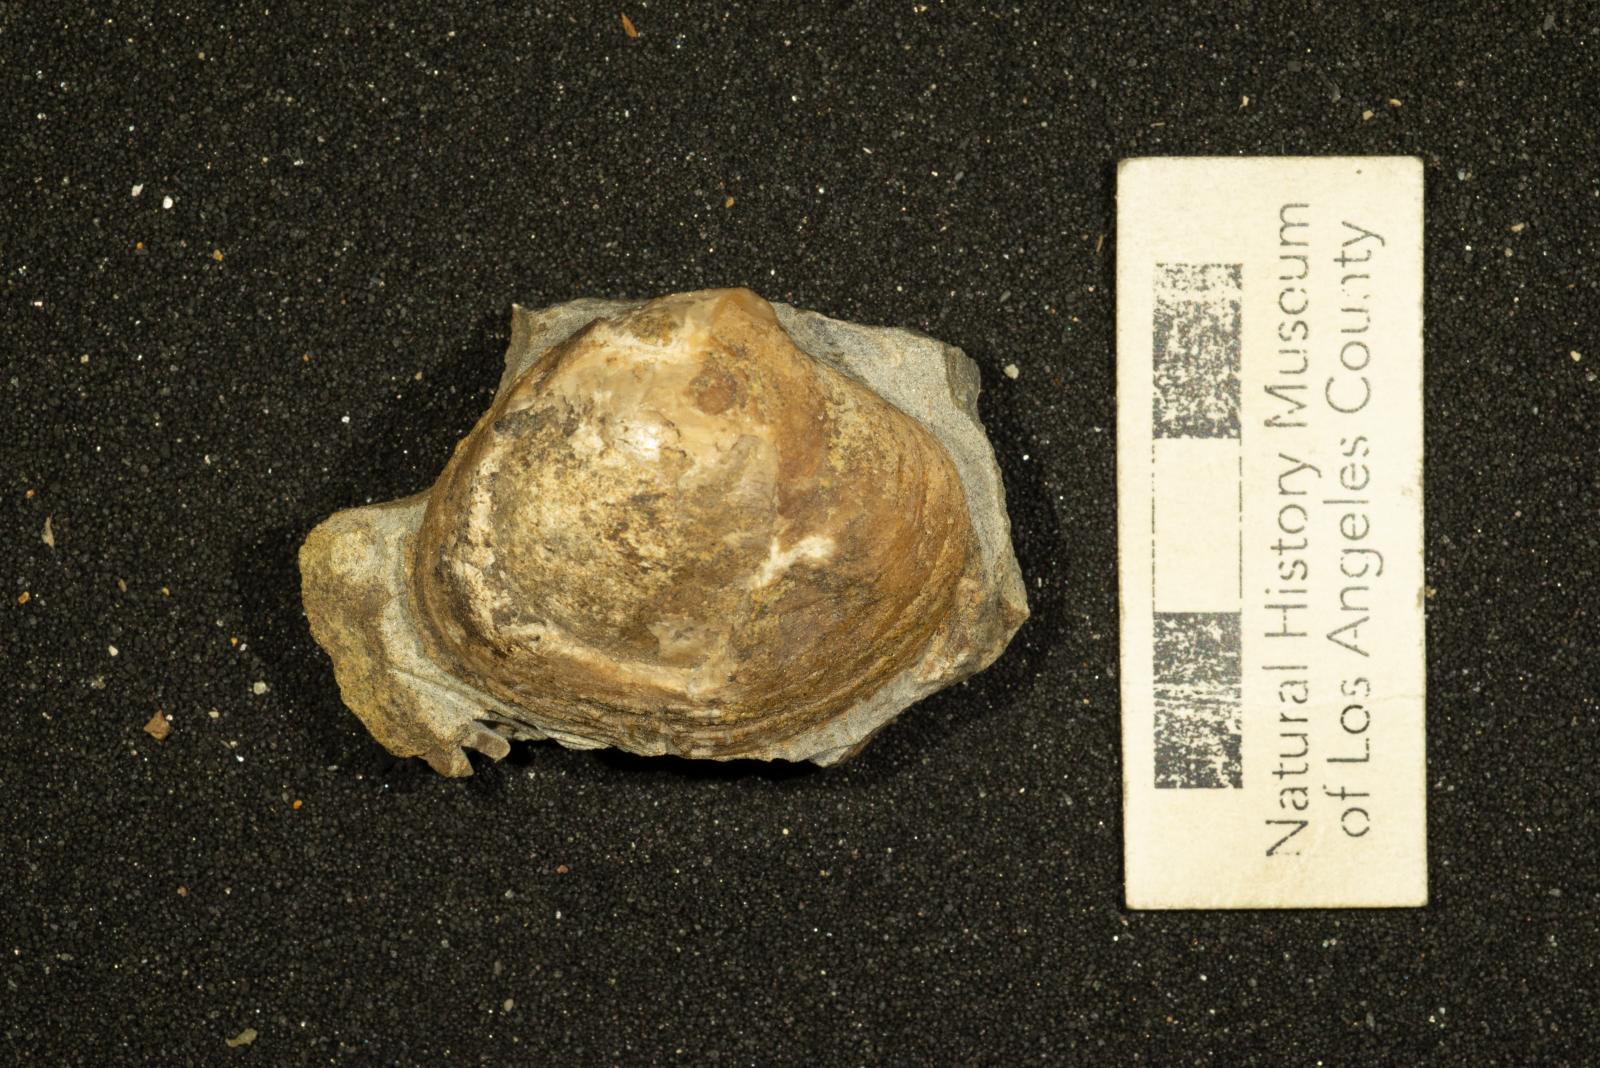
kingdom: Animalia
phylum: Mollusca
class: Bivalvia
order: Venerida
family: Veneridae
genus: Calva
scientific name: Calva campanae
